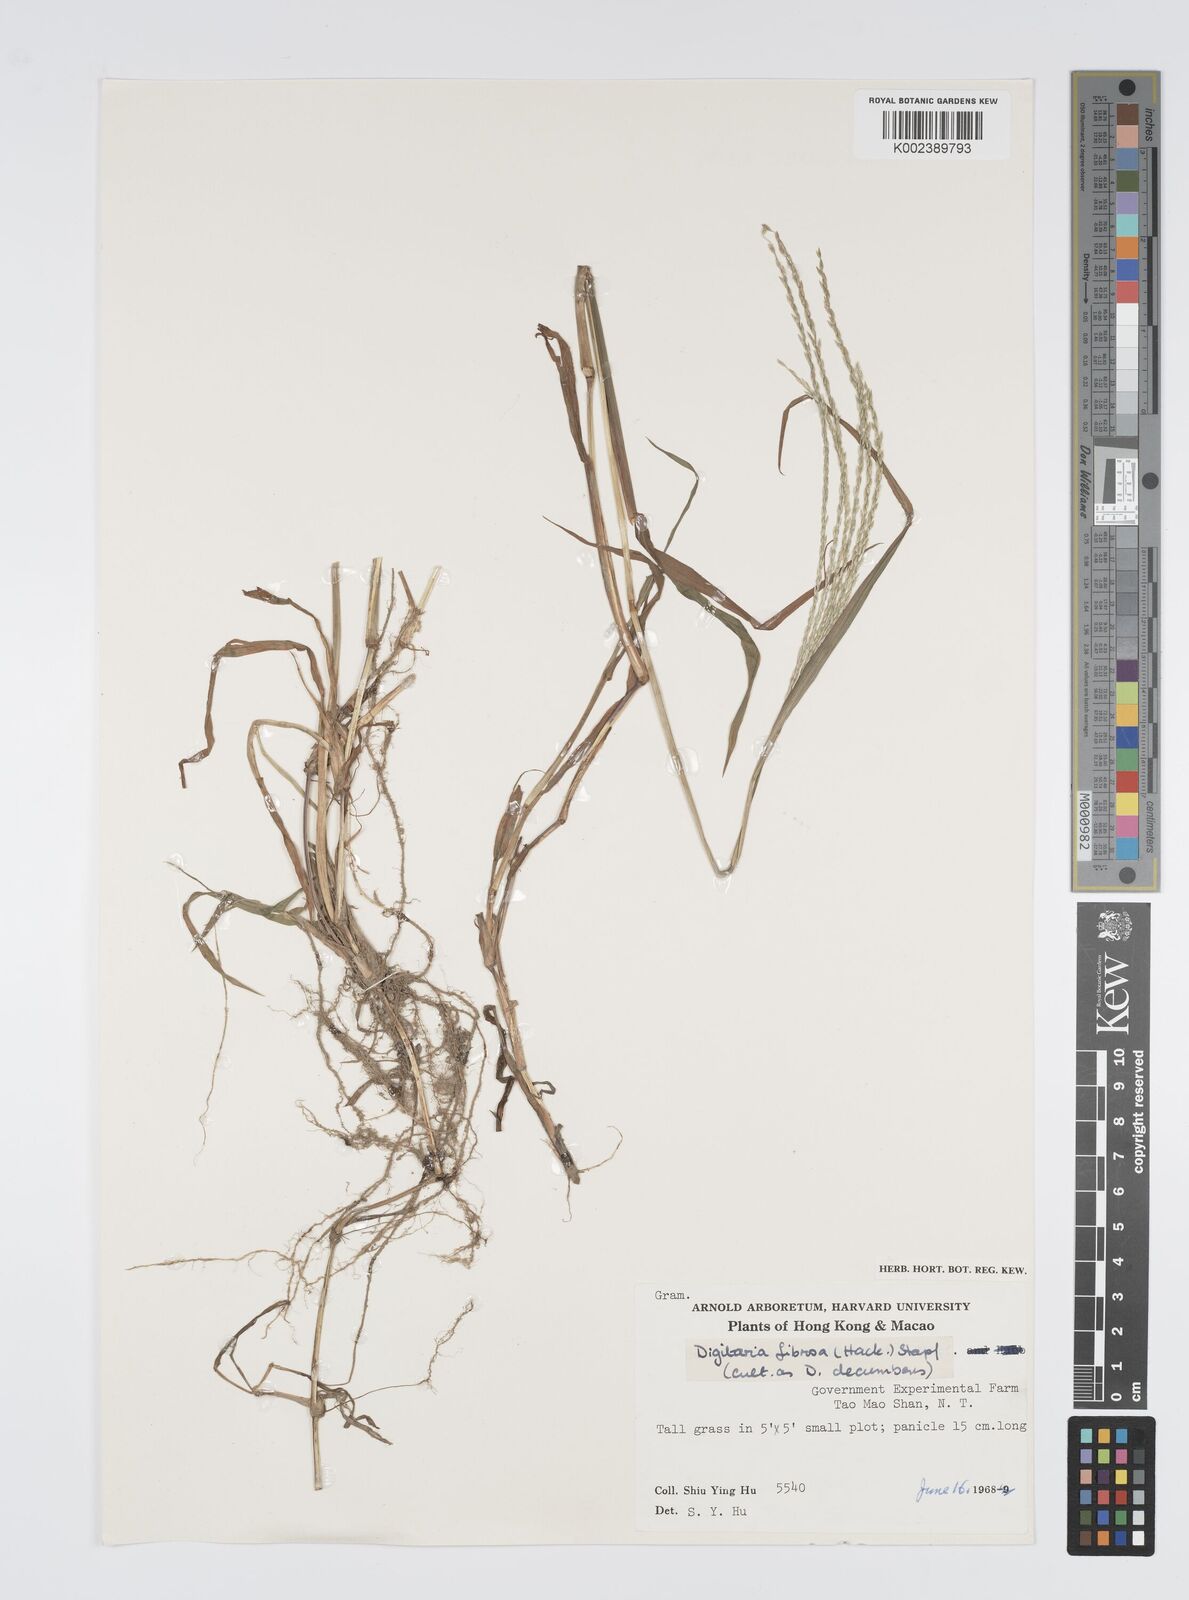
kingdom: Plantae
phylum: Tracheophyta
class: Liliopsida
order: Poales
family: Poaceae
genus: Digitaria
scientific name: Digitaria
